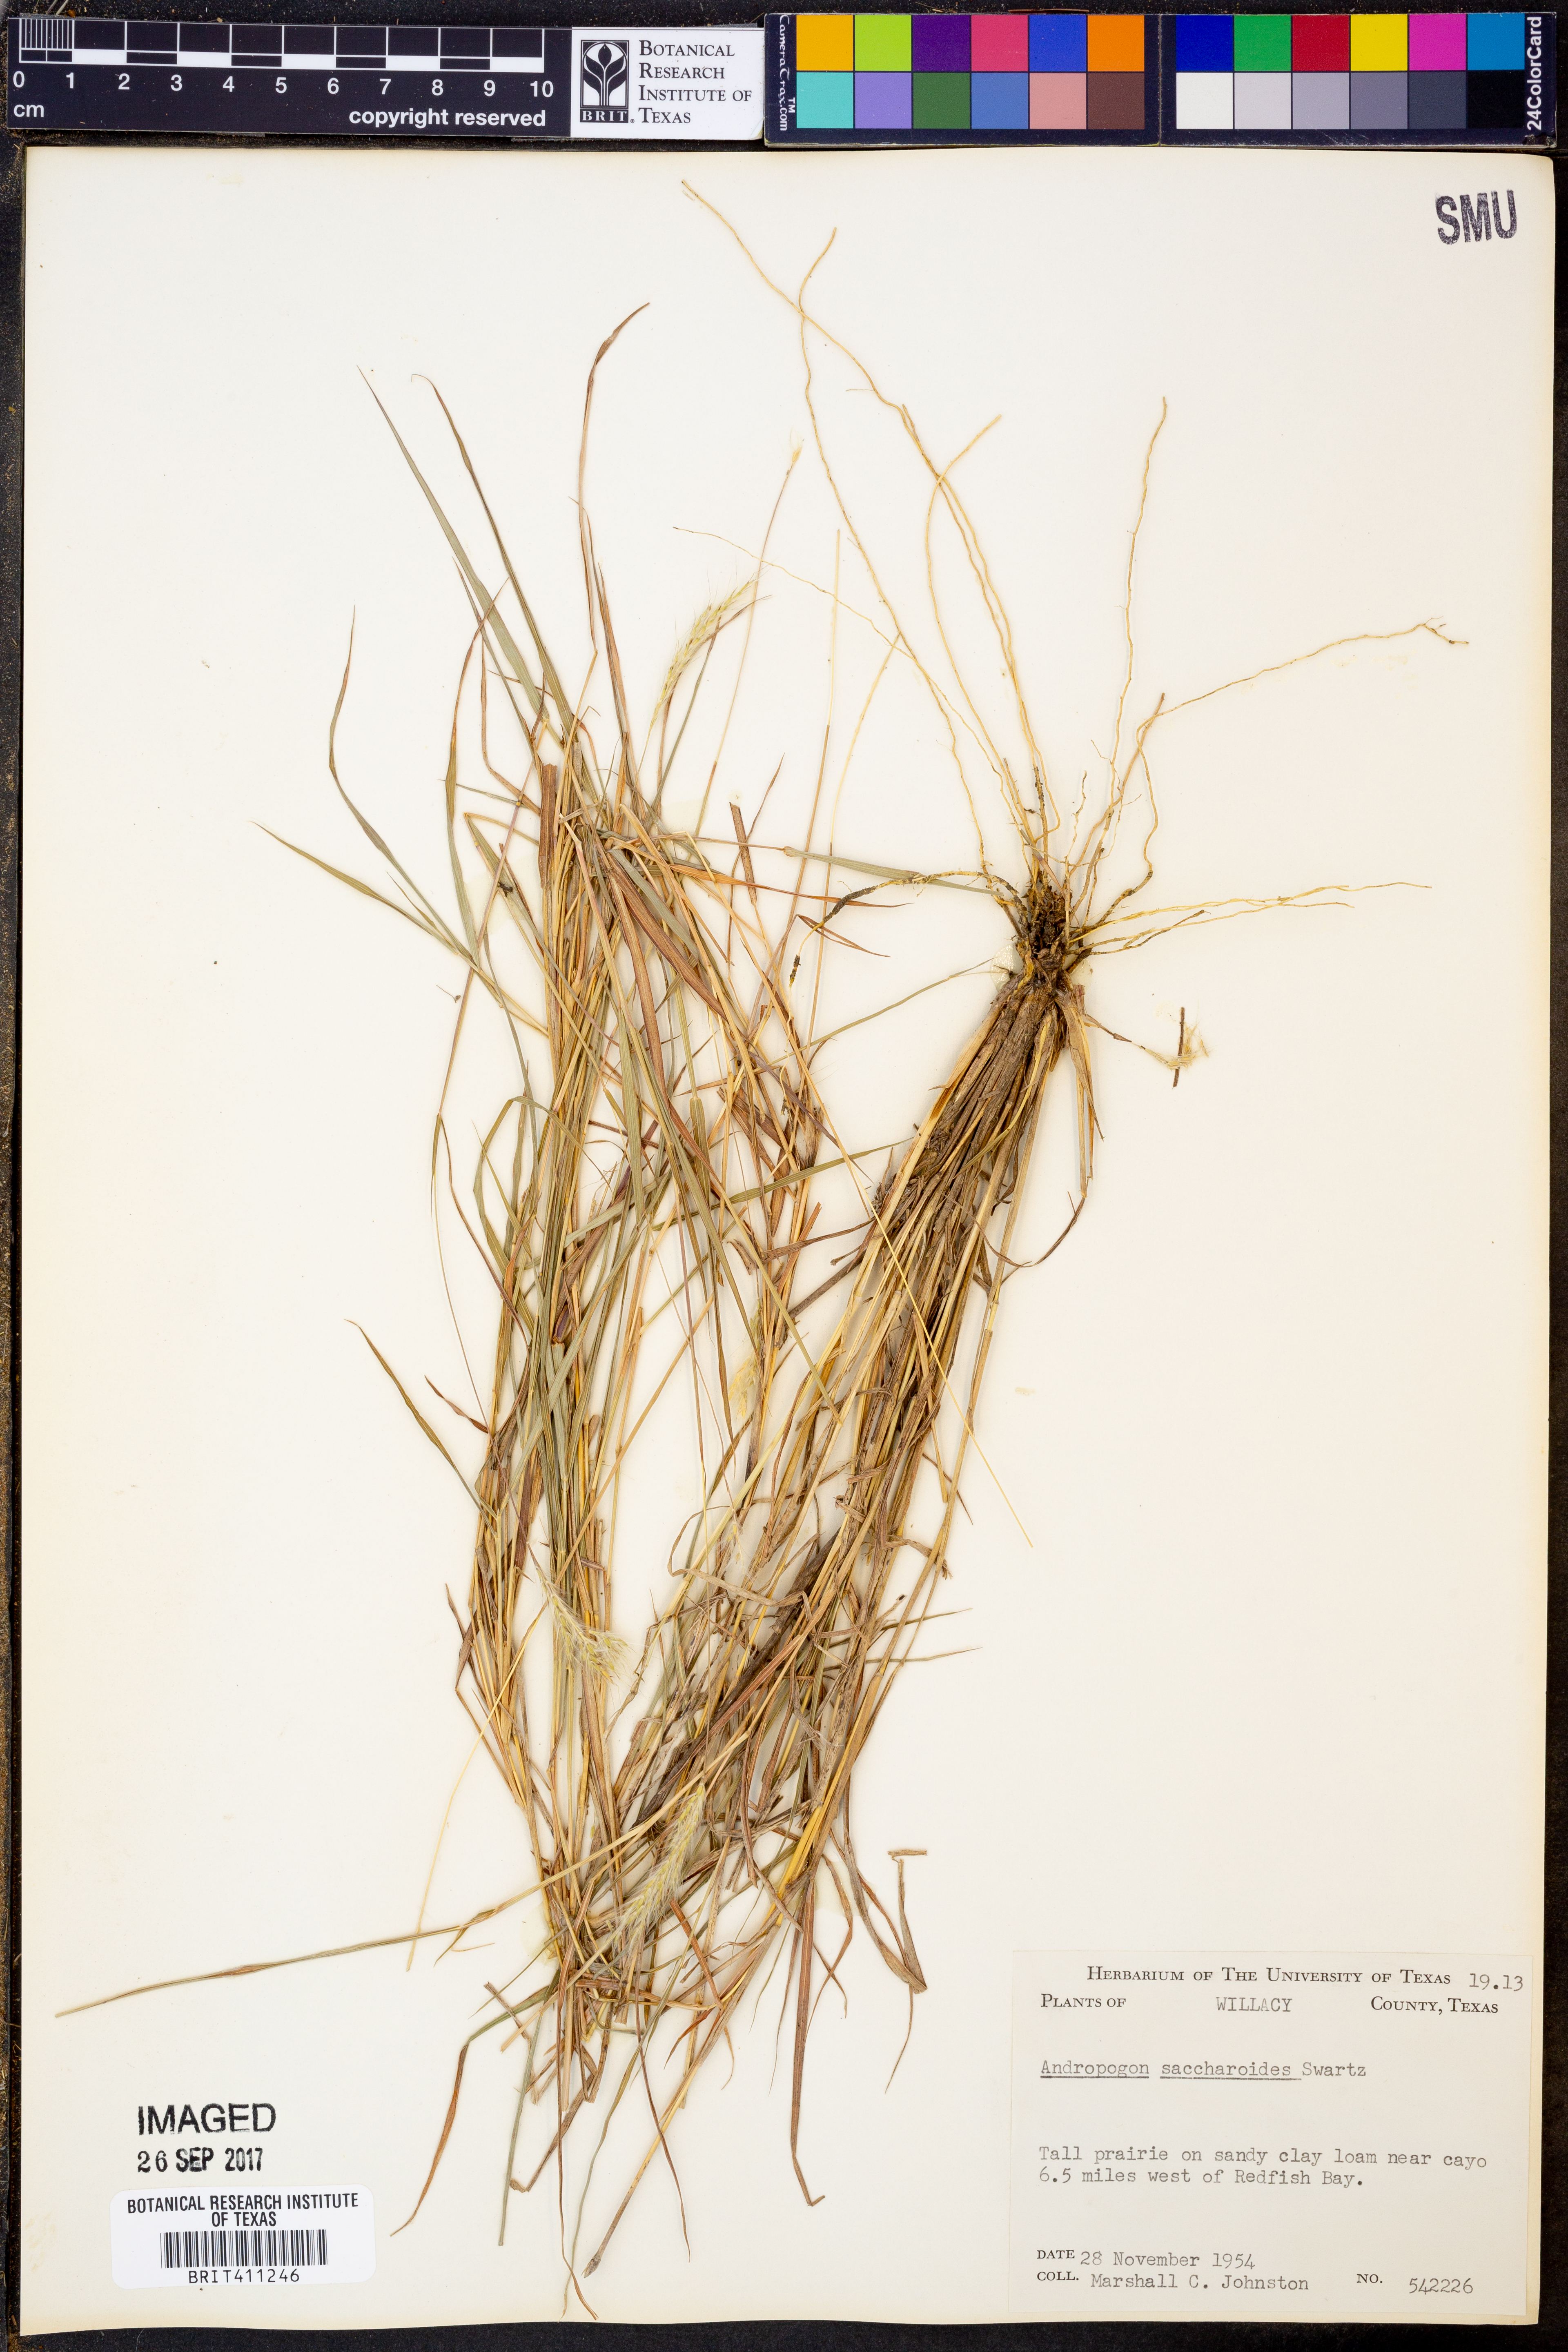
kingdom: Plantae
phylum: Tracheophyta
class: Liliopsida
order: Poales
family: Poaceae
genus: Bothriochloa
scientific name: Bothriochloa saccharoides
